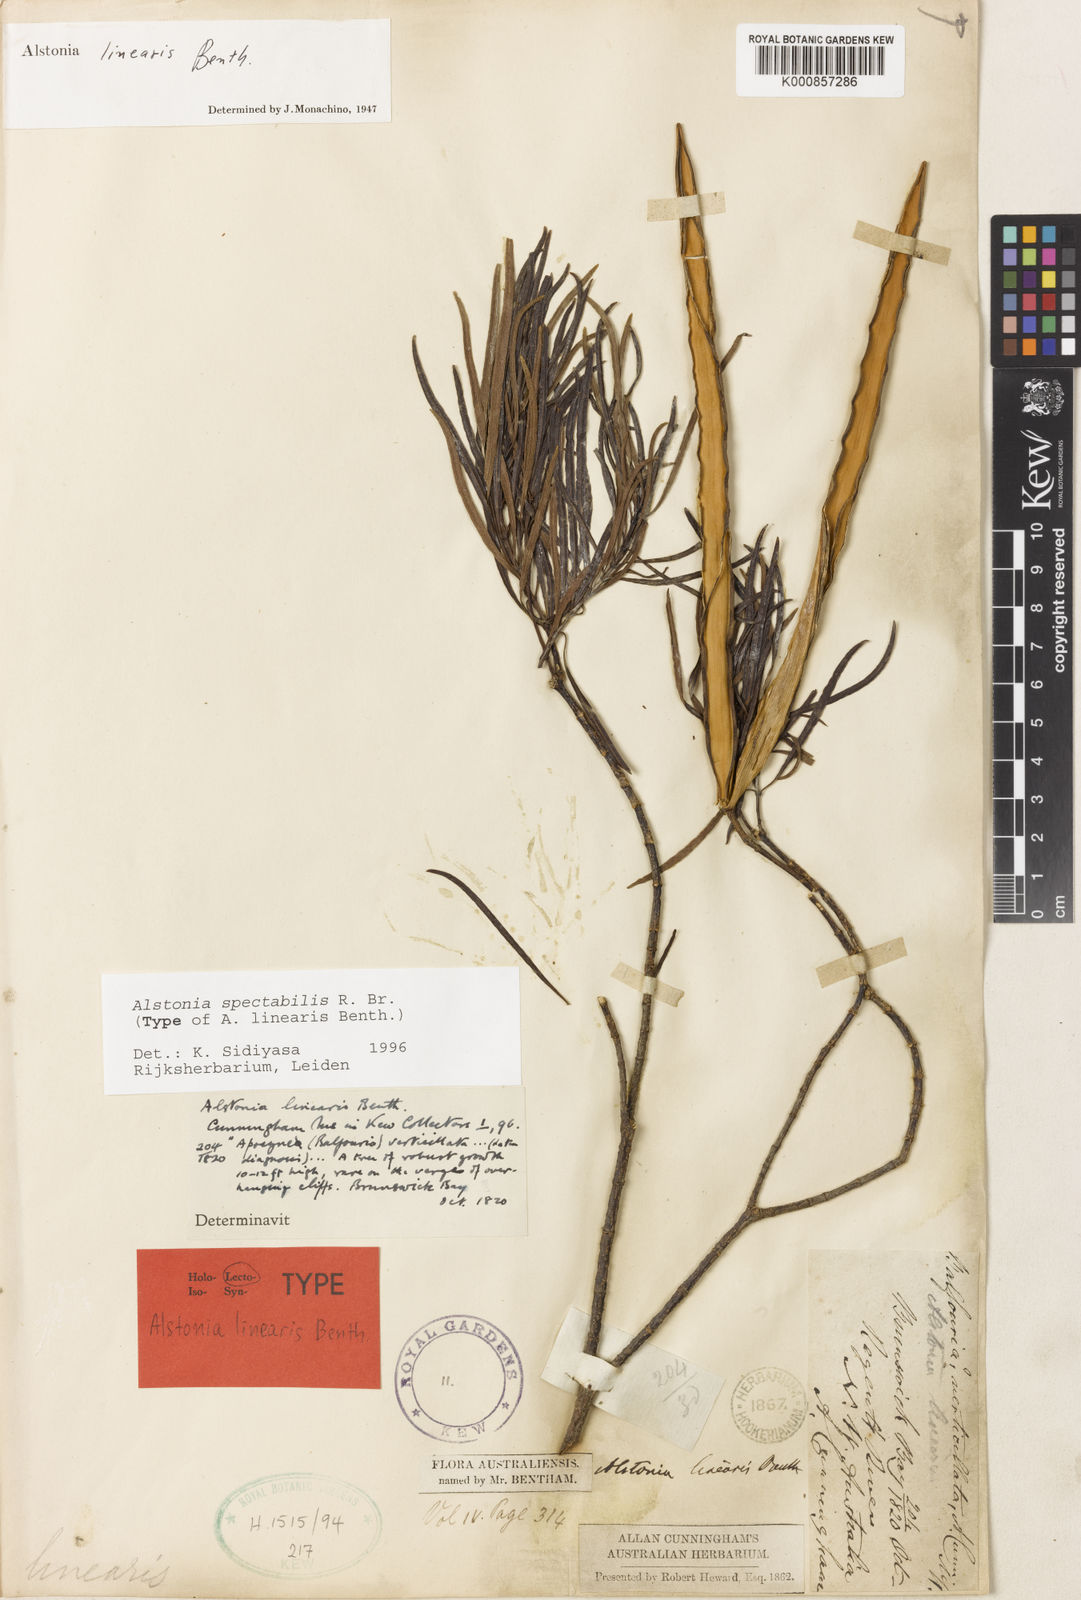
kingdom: Plantae
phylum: Tracheophyta
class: Magnoliopsida
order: Gentianales
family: Apocynaceae
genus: Alstonia
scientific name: Alstonia spectabilis
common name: Milky yellowwood
